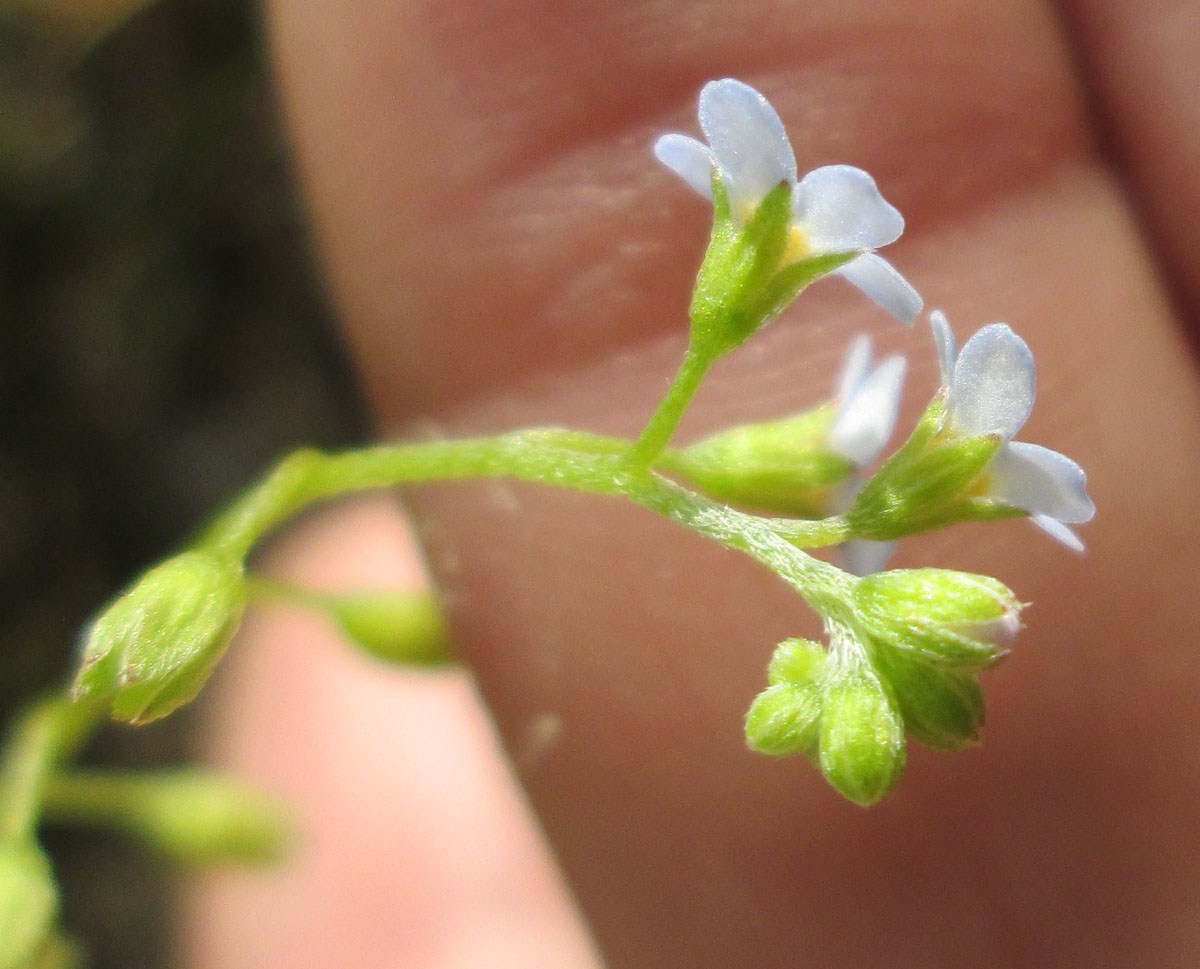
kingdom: Plantae
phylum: Tracheophyta
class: Magnoliopsida
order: Boraginales
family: Boraginaceae
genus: Myosotis
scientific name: Myosotis laxa
